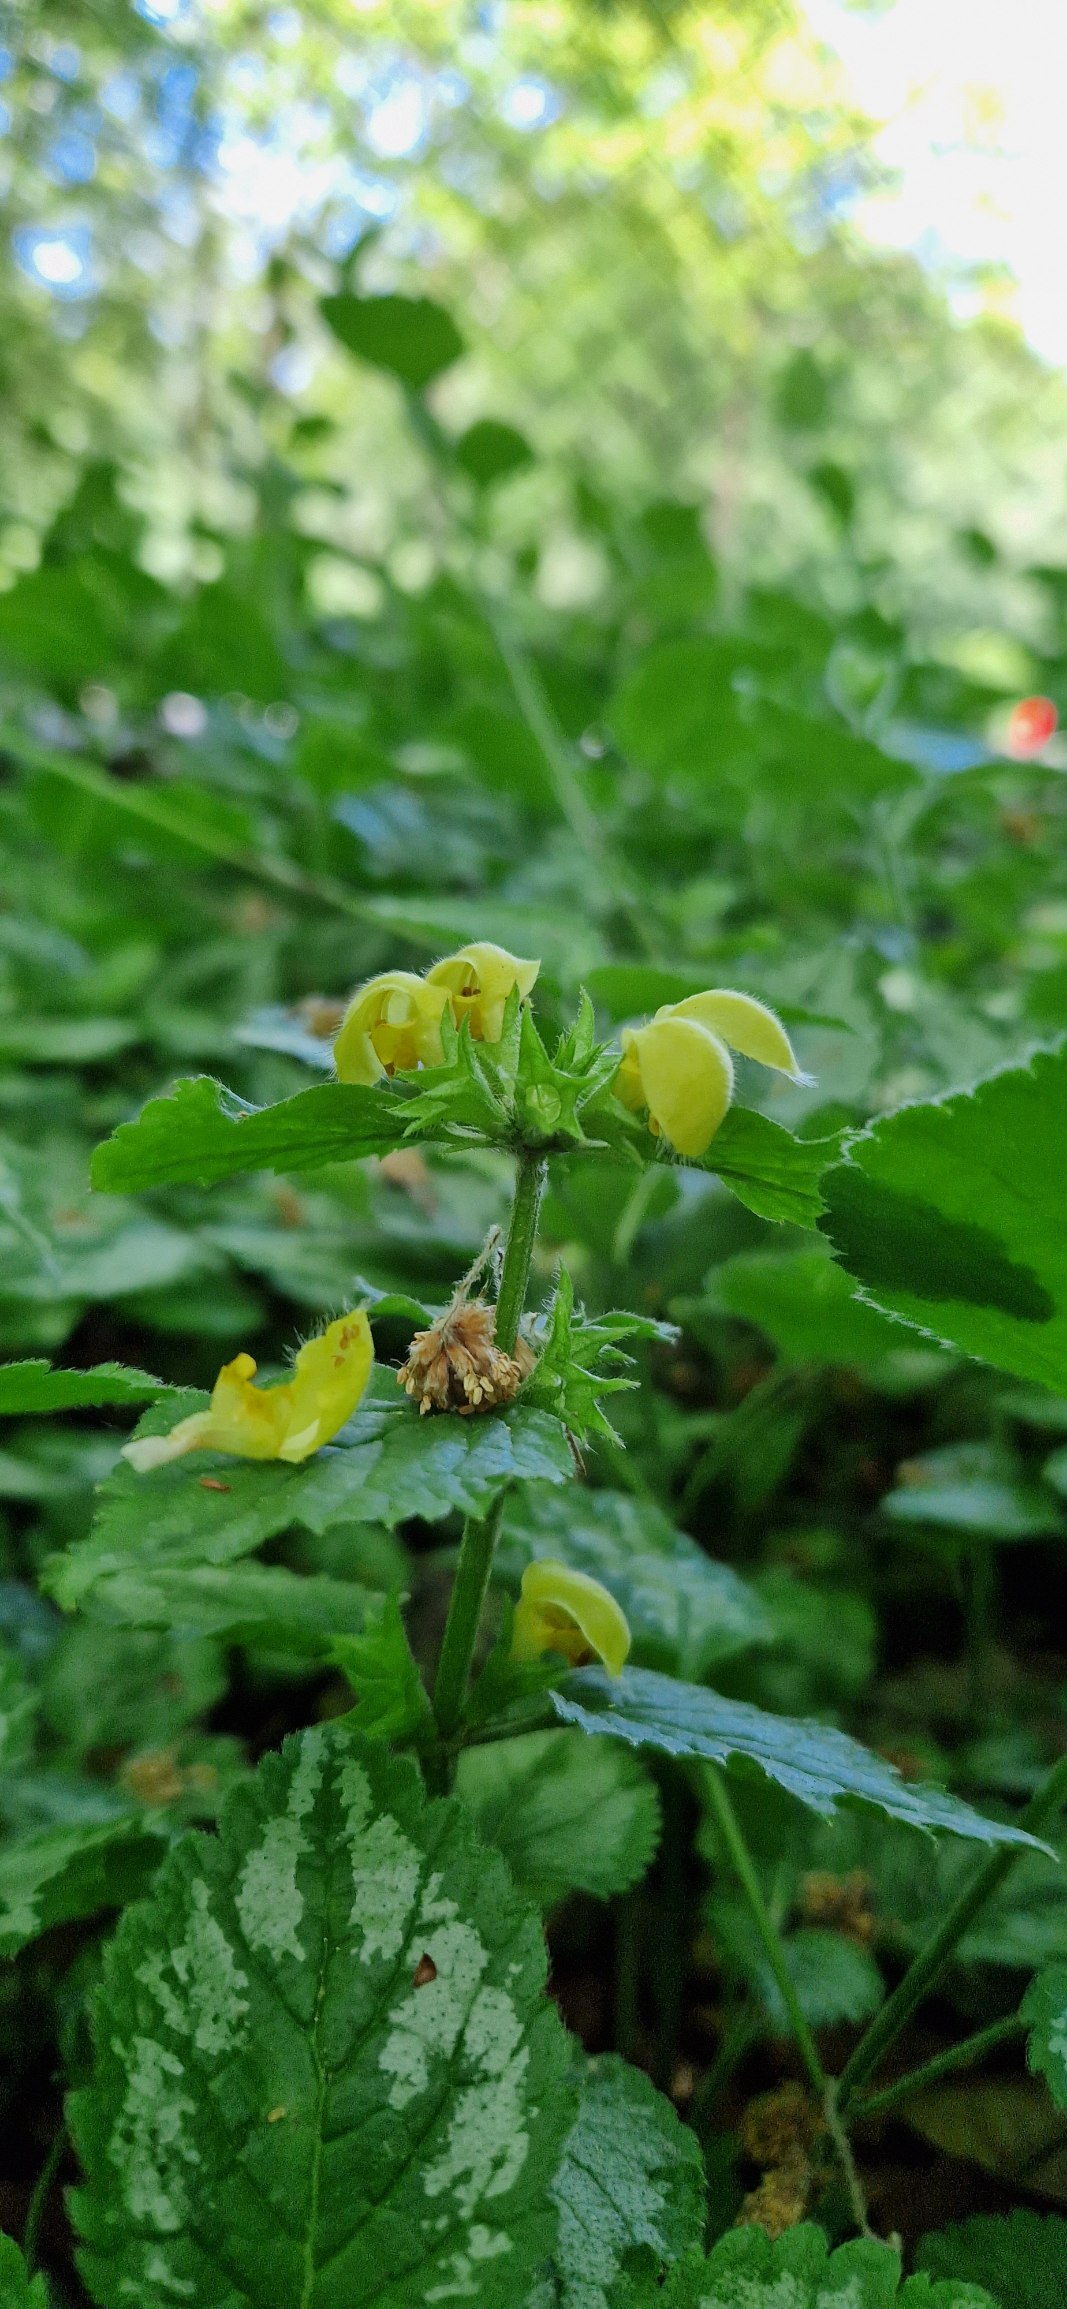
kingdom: Plantae
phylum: Tracheophyta
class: Magnoliopsida
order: Lamiales
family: Lamiaceae
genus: Lamium
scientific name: Lamium galeobdolon
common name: Have-guldnælde
